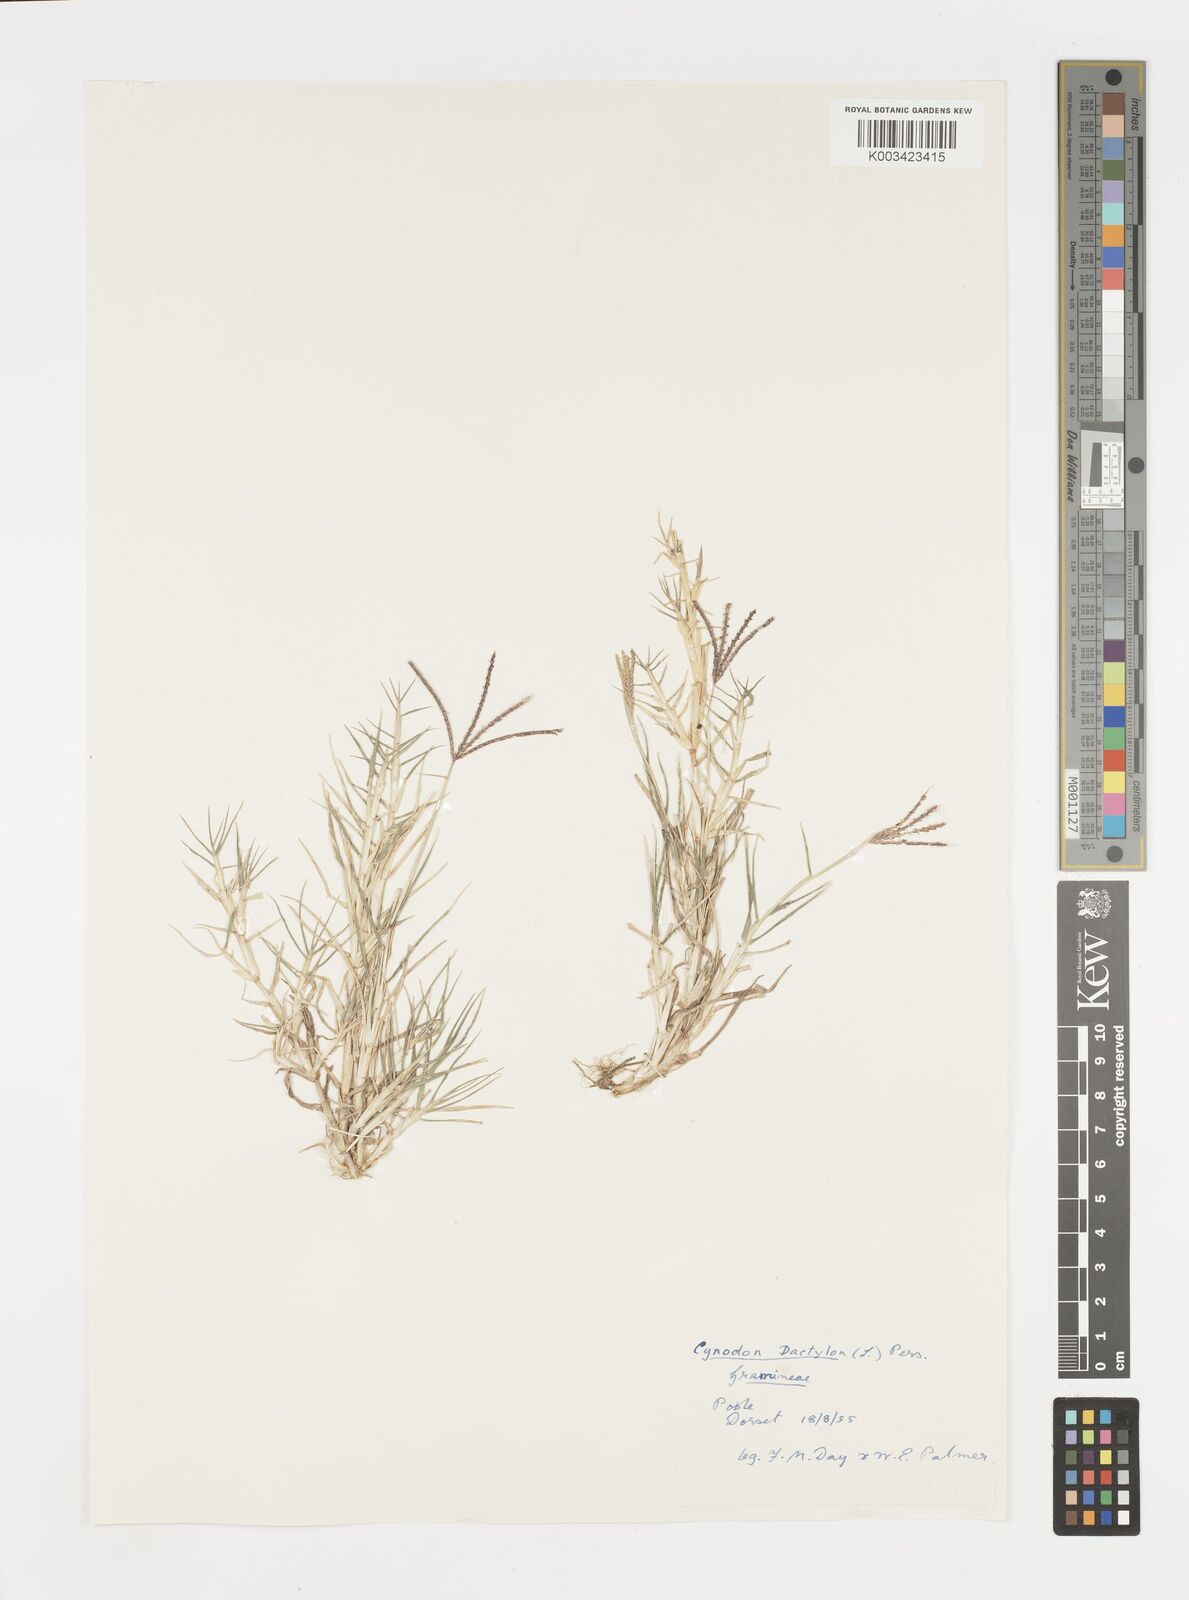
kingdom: Plantae
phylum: Tracheophyta
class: Liliopsida
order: Poales
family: Poaceae
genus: Cynodon
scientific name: Cynodon dactylon
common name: Bermuda grass
